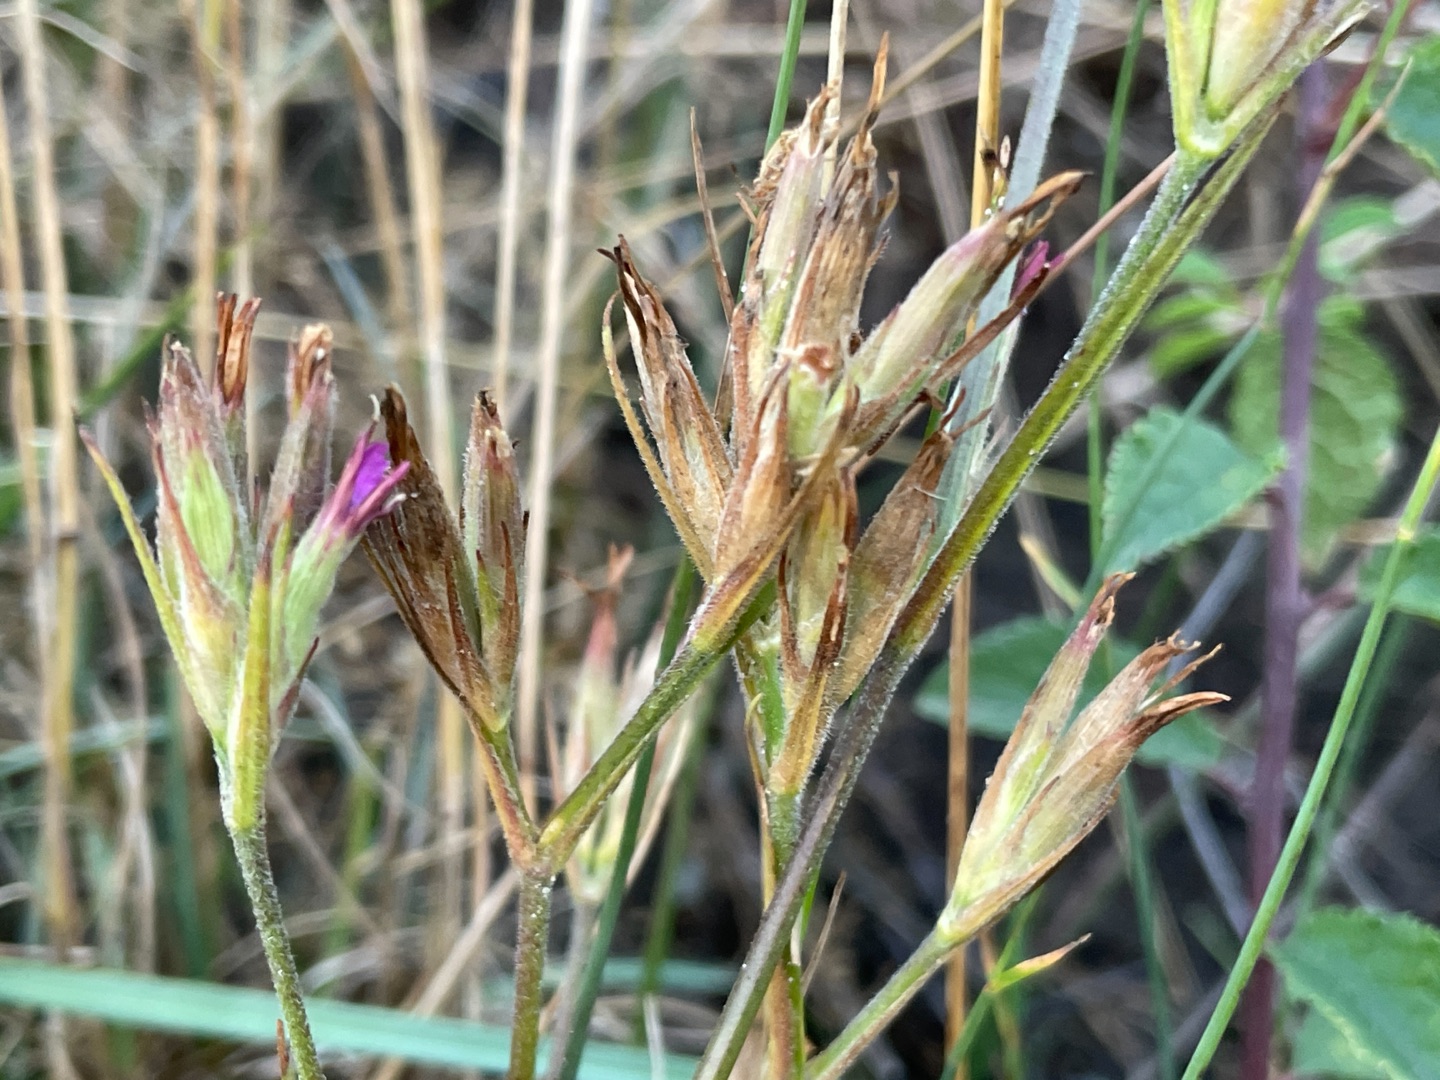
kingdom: Plantae
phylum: Tracheophyta
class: Magnoliopsida
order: Caryophyllales
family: Caryophyllaceae
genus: Dianthus
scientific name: Dianthus armeria
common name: Kost-nellike
